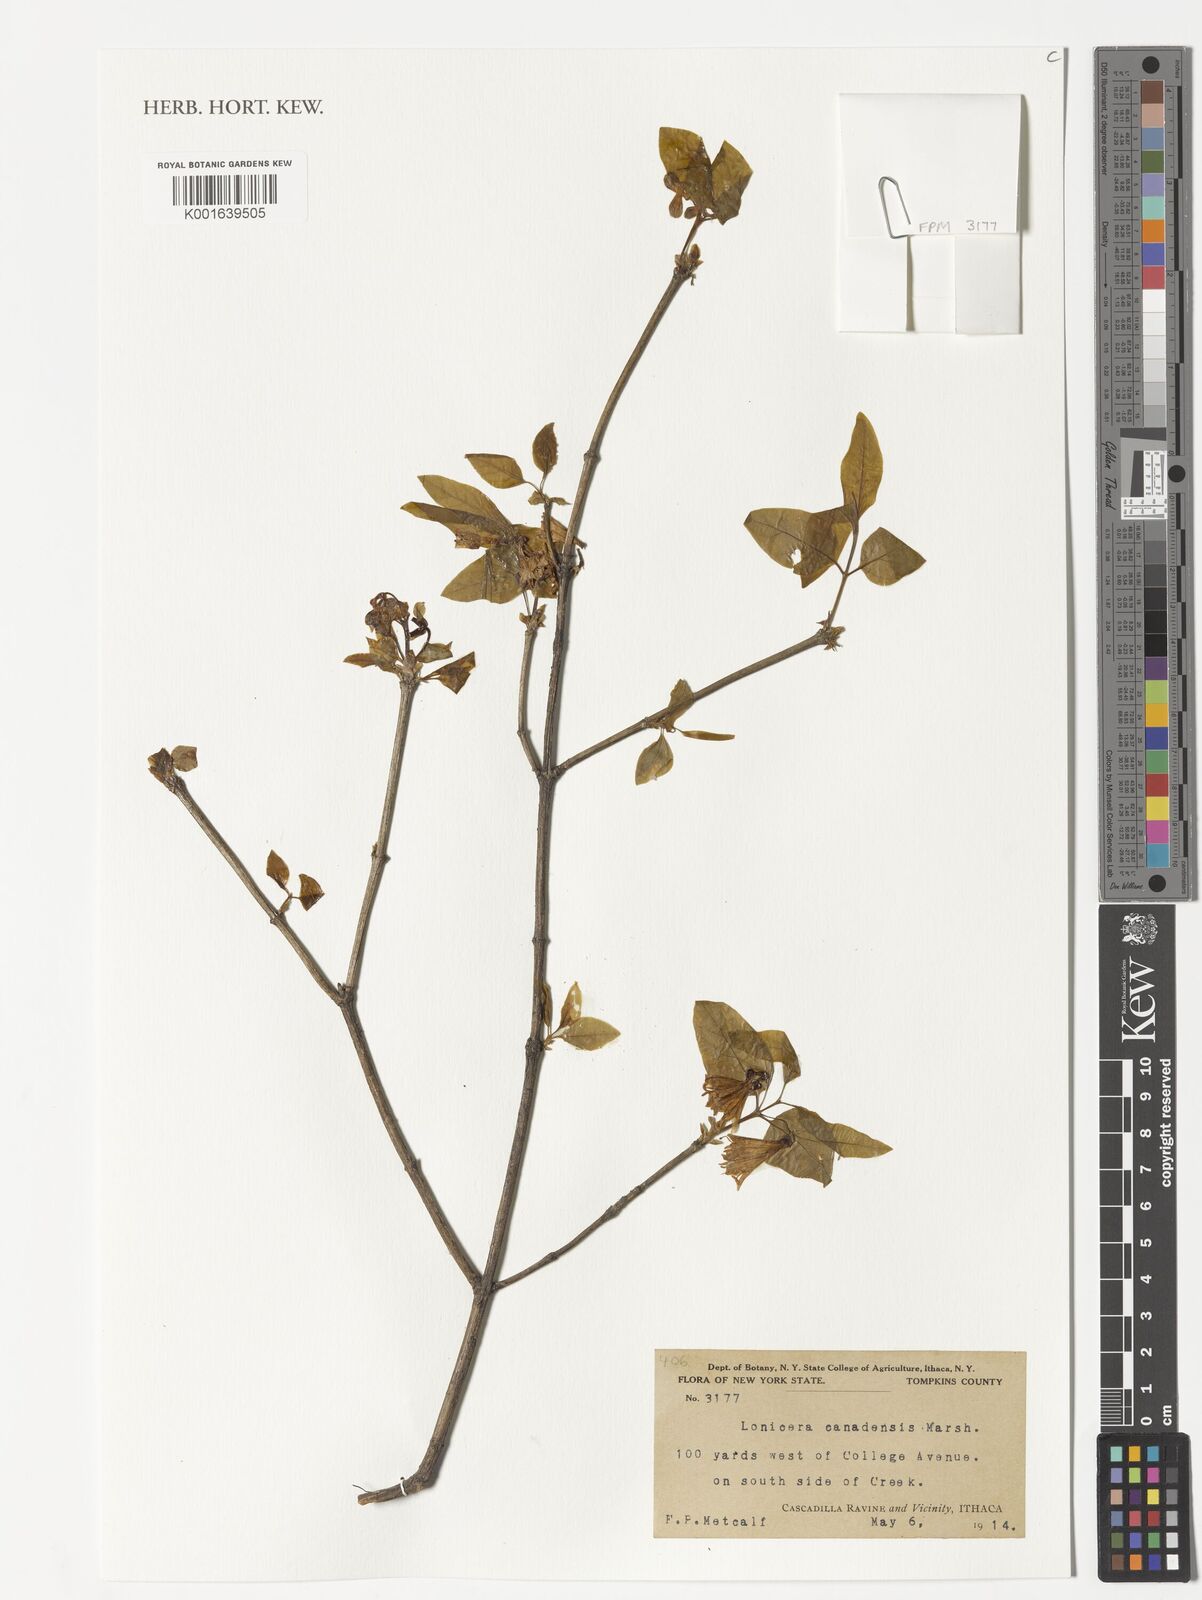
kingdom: Plantae
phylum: Tracheophyta
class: Magnoliopsida
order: Dipsacales
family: Caprifoliaceae
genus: Lonicera
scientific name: Lonicera canadensis
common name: American fly-honeysuckle
